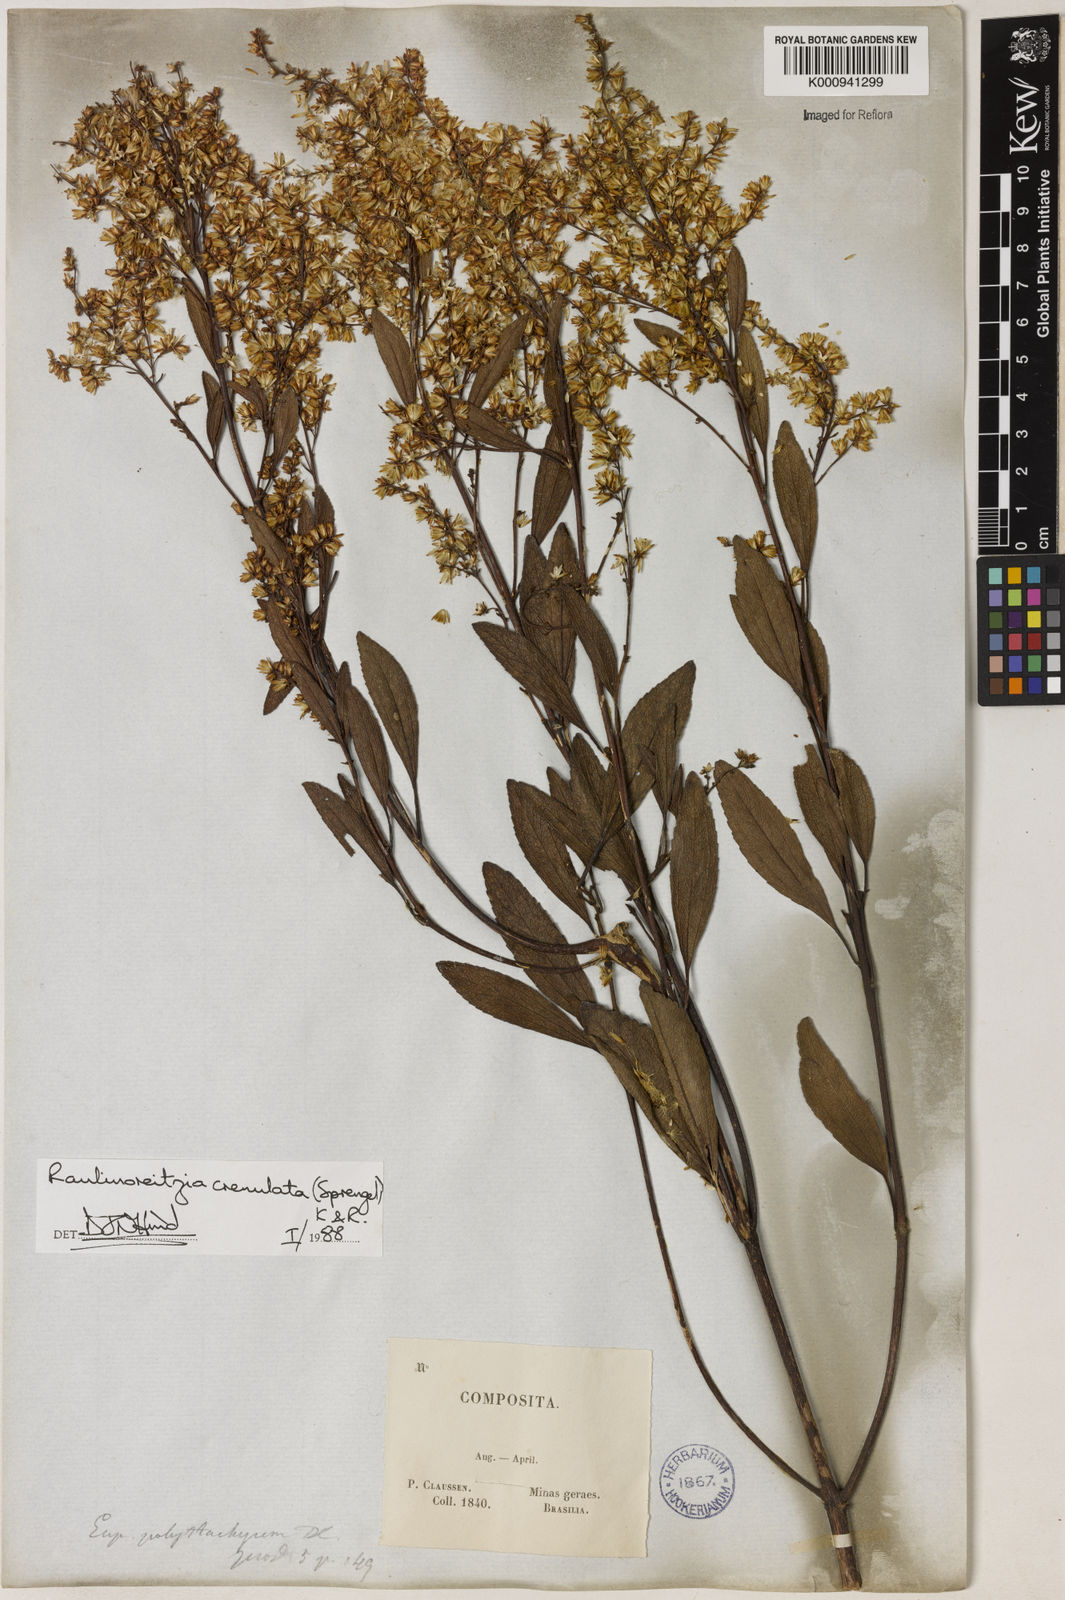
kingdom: Plantae
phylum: Tracheophyta
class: Magnoliopsida
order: Asterales
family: Asteraceae
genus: Raulinoreitzia
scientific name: Raulinoreitzia crenulata
